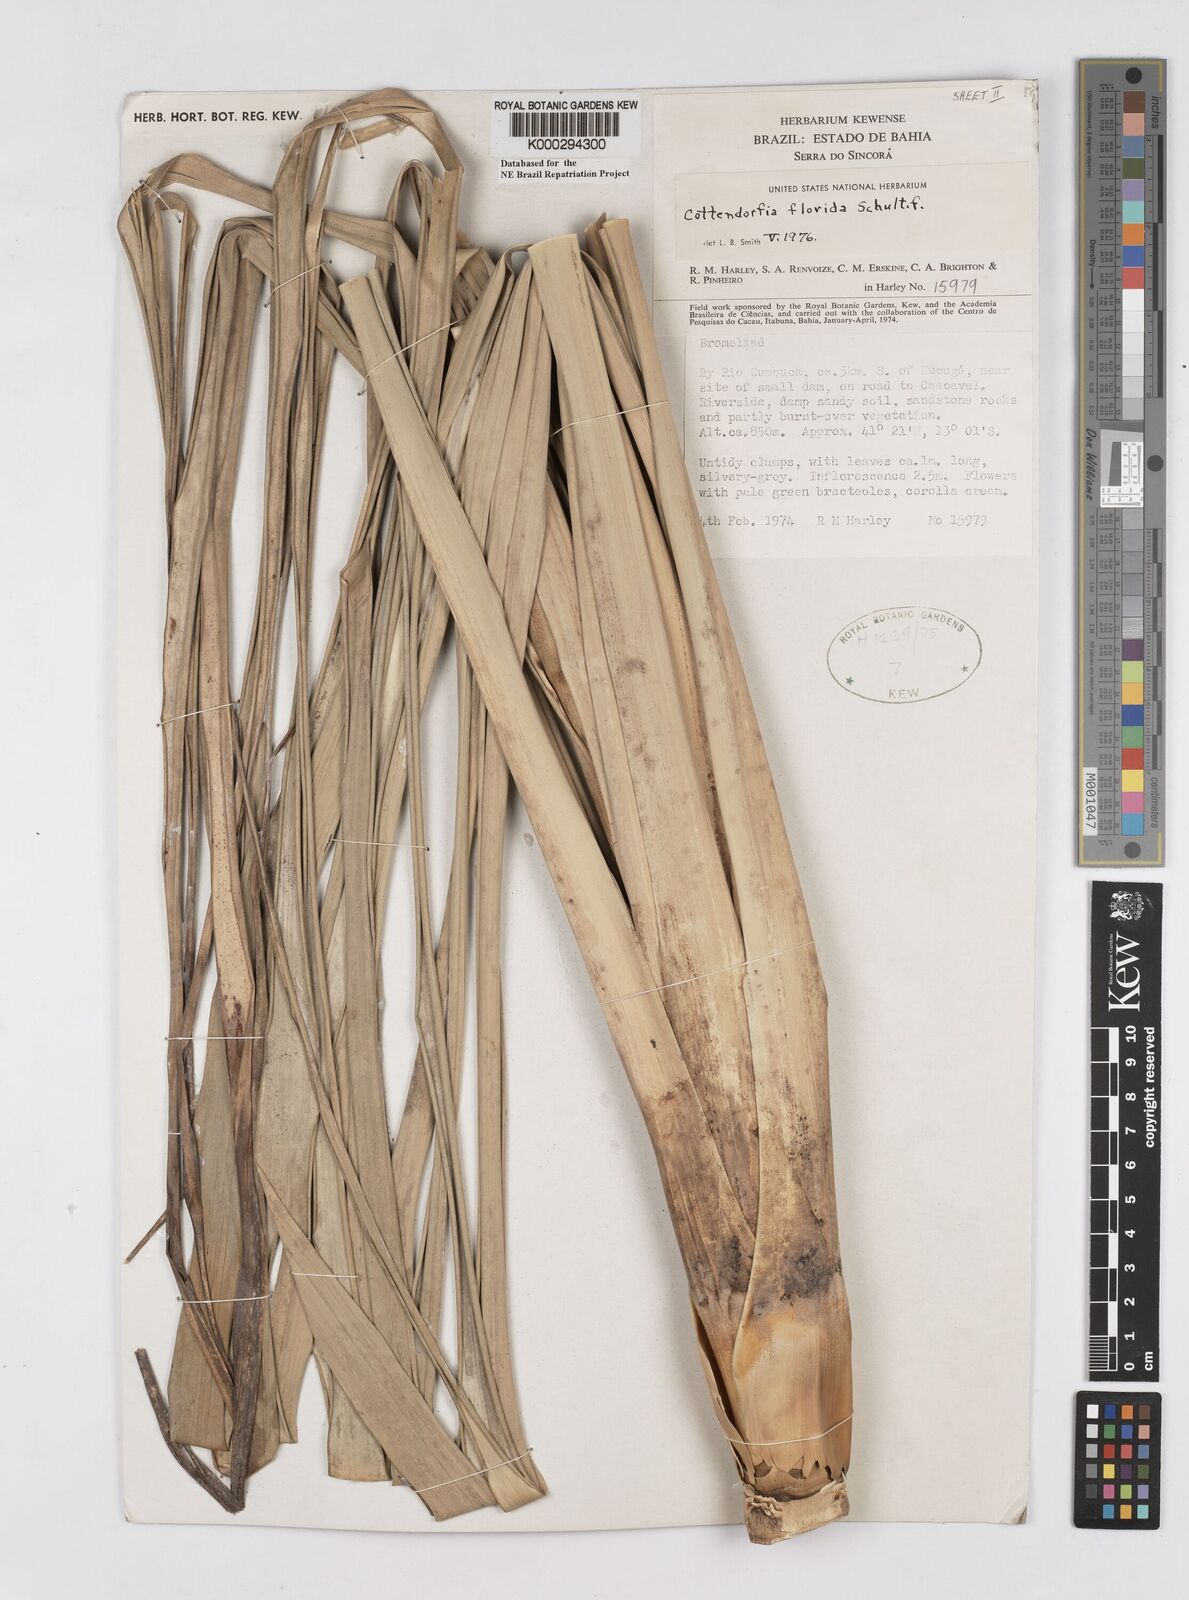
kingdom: Plantae
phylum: Tracheophyta
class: Liliopsida
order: Poales
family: Bromeliaceae
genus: Cottendorfia
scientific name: Cottendorfia florida
